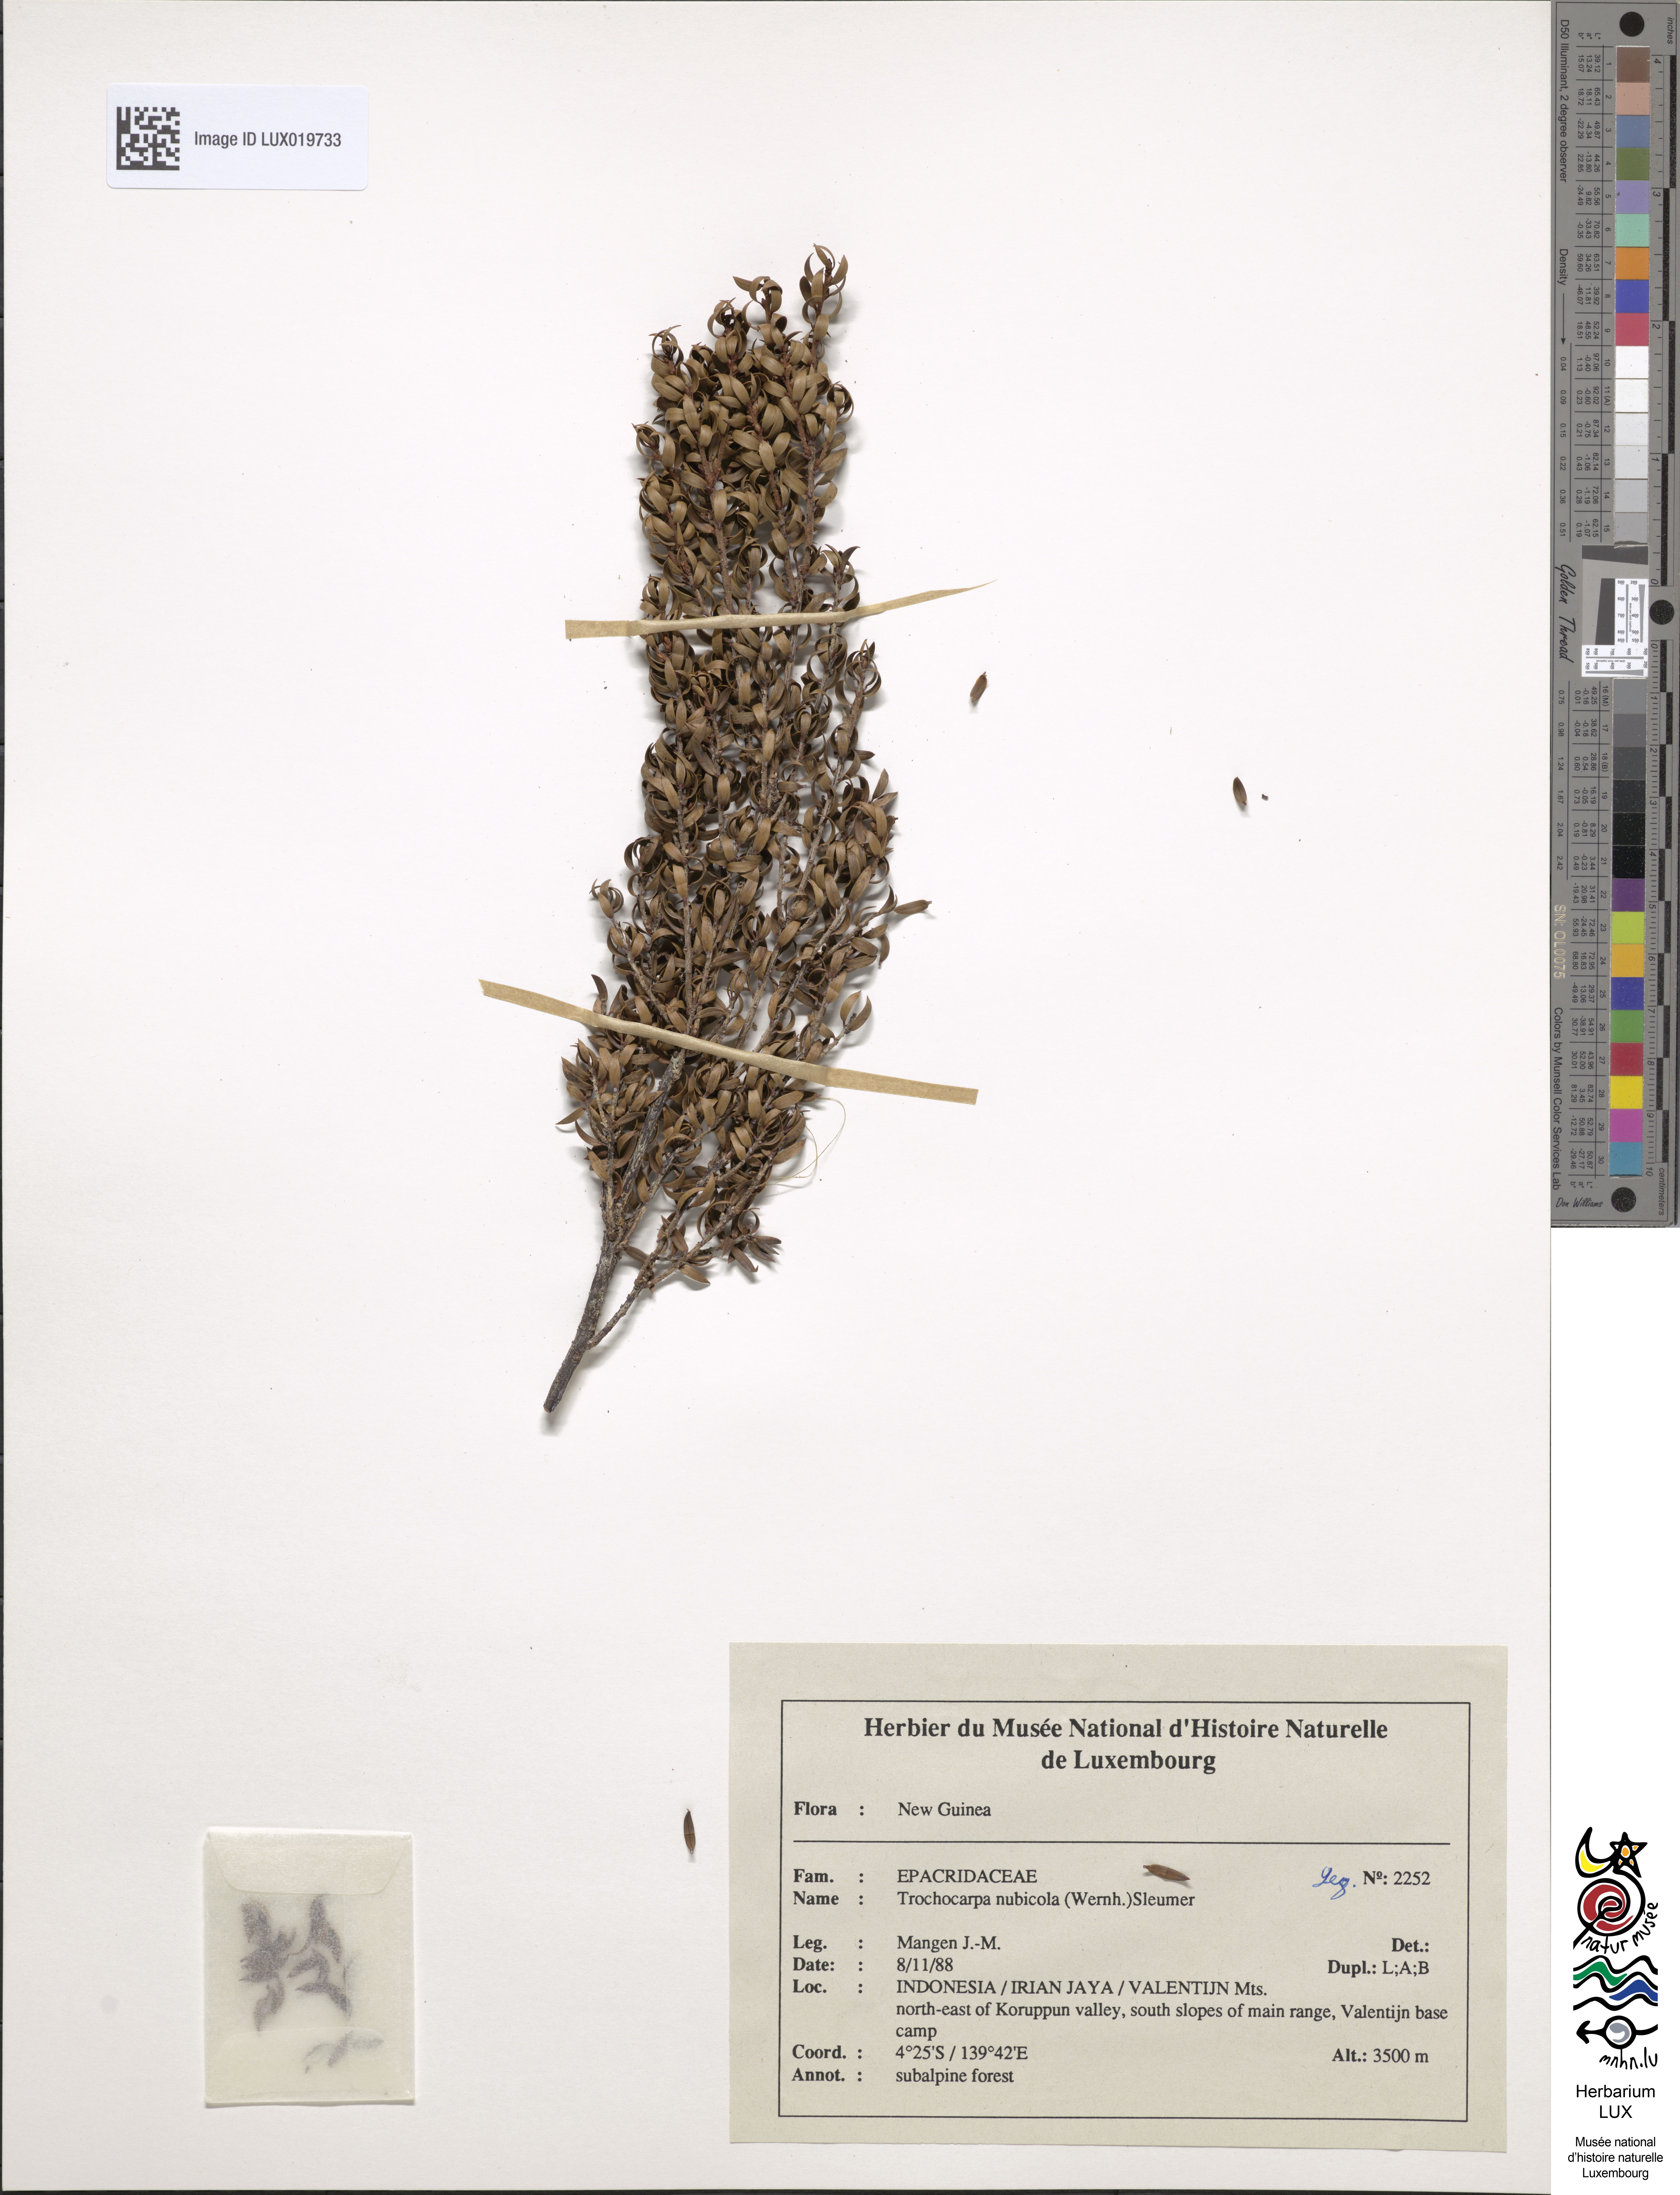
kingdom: Plantae
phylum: Tracheophyta
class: Magnoliopsida
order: Ericales
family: Ericaceae
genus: Trochocarpa
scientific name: Trochocarpa nubicola
